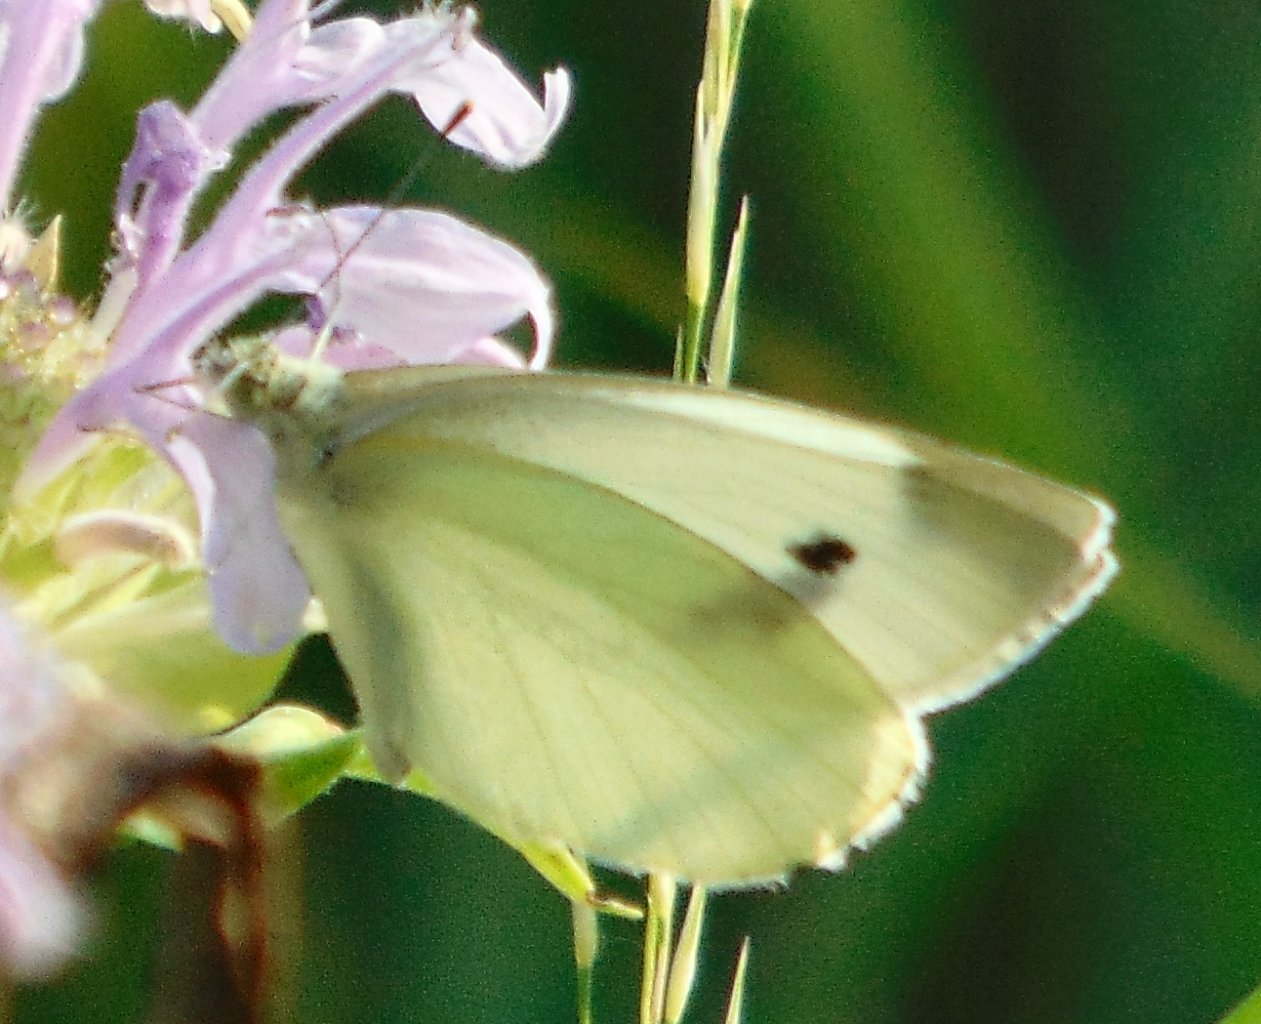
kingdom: Animalia
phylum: Arthropoda
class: Insecta
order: Lepidoptera
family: Pieridae
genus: Pieris
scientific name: Pieris rapae
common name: Cabbage White
